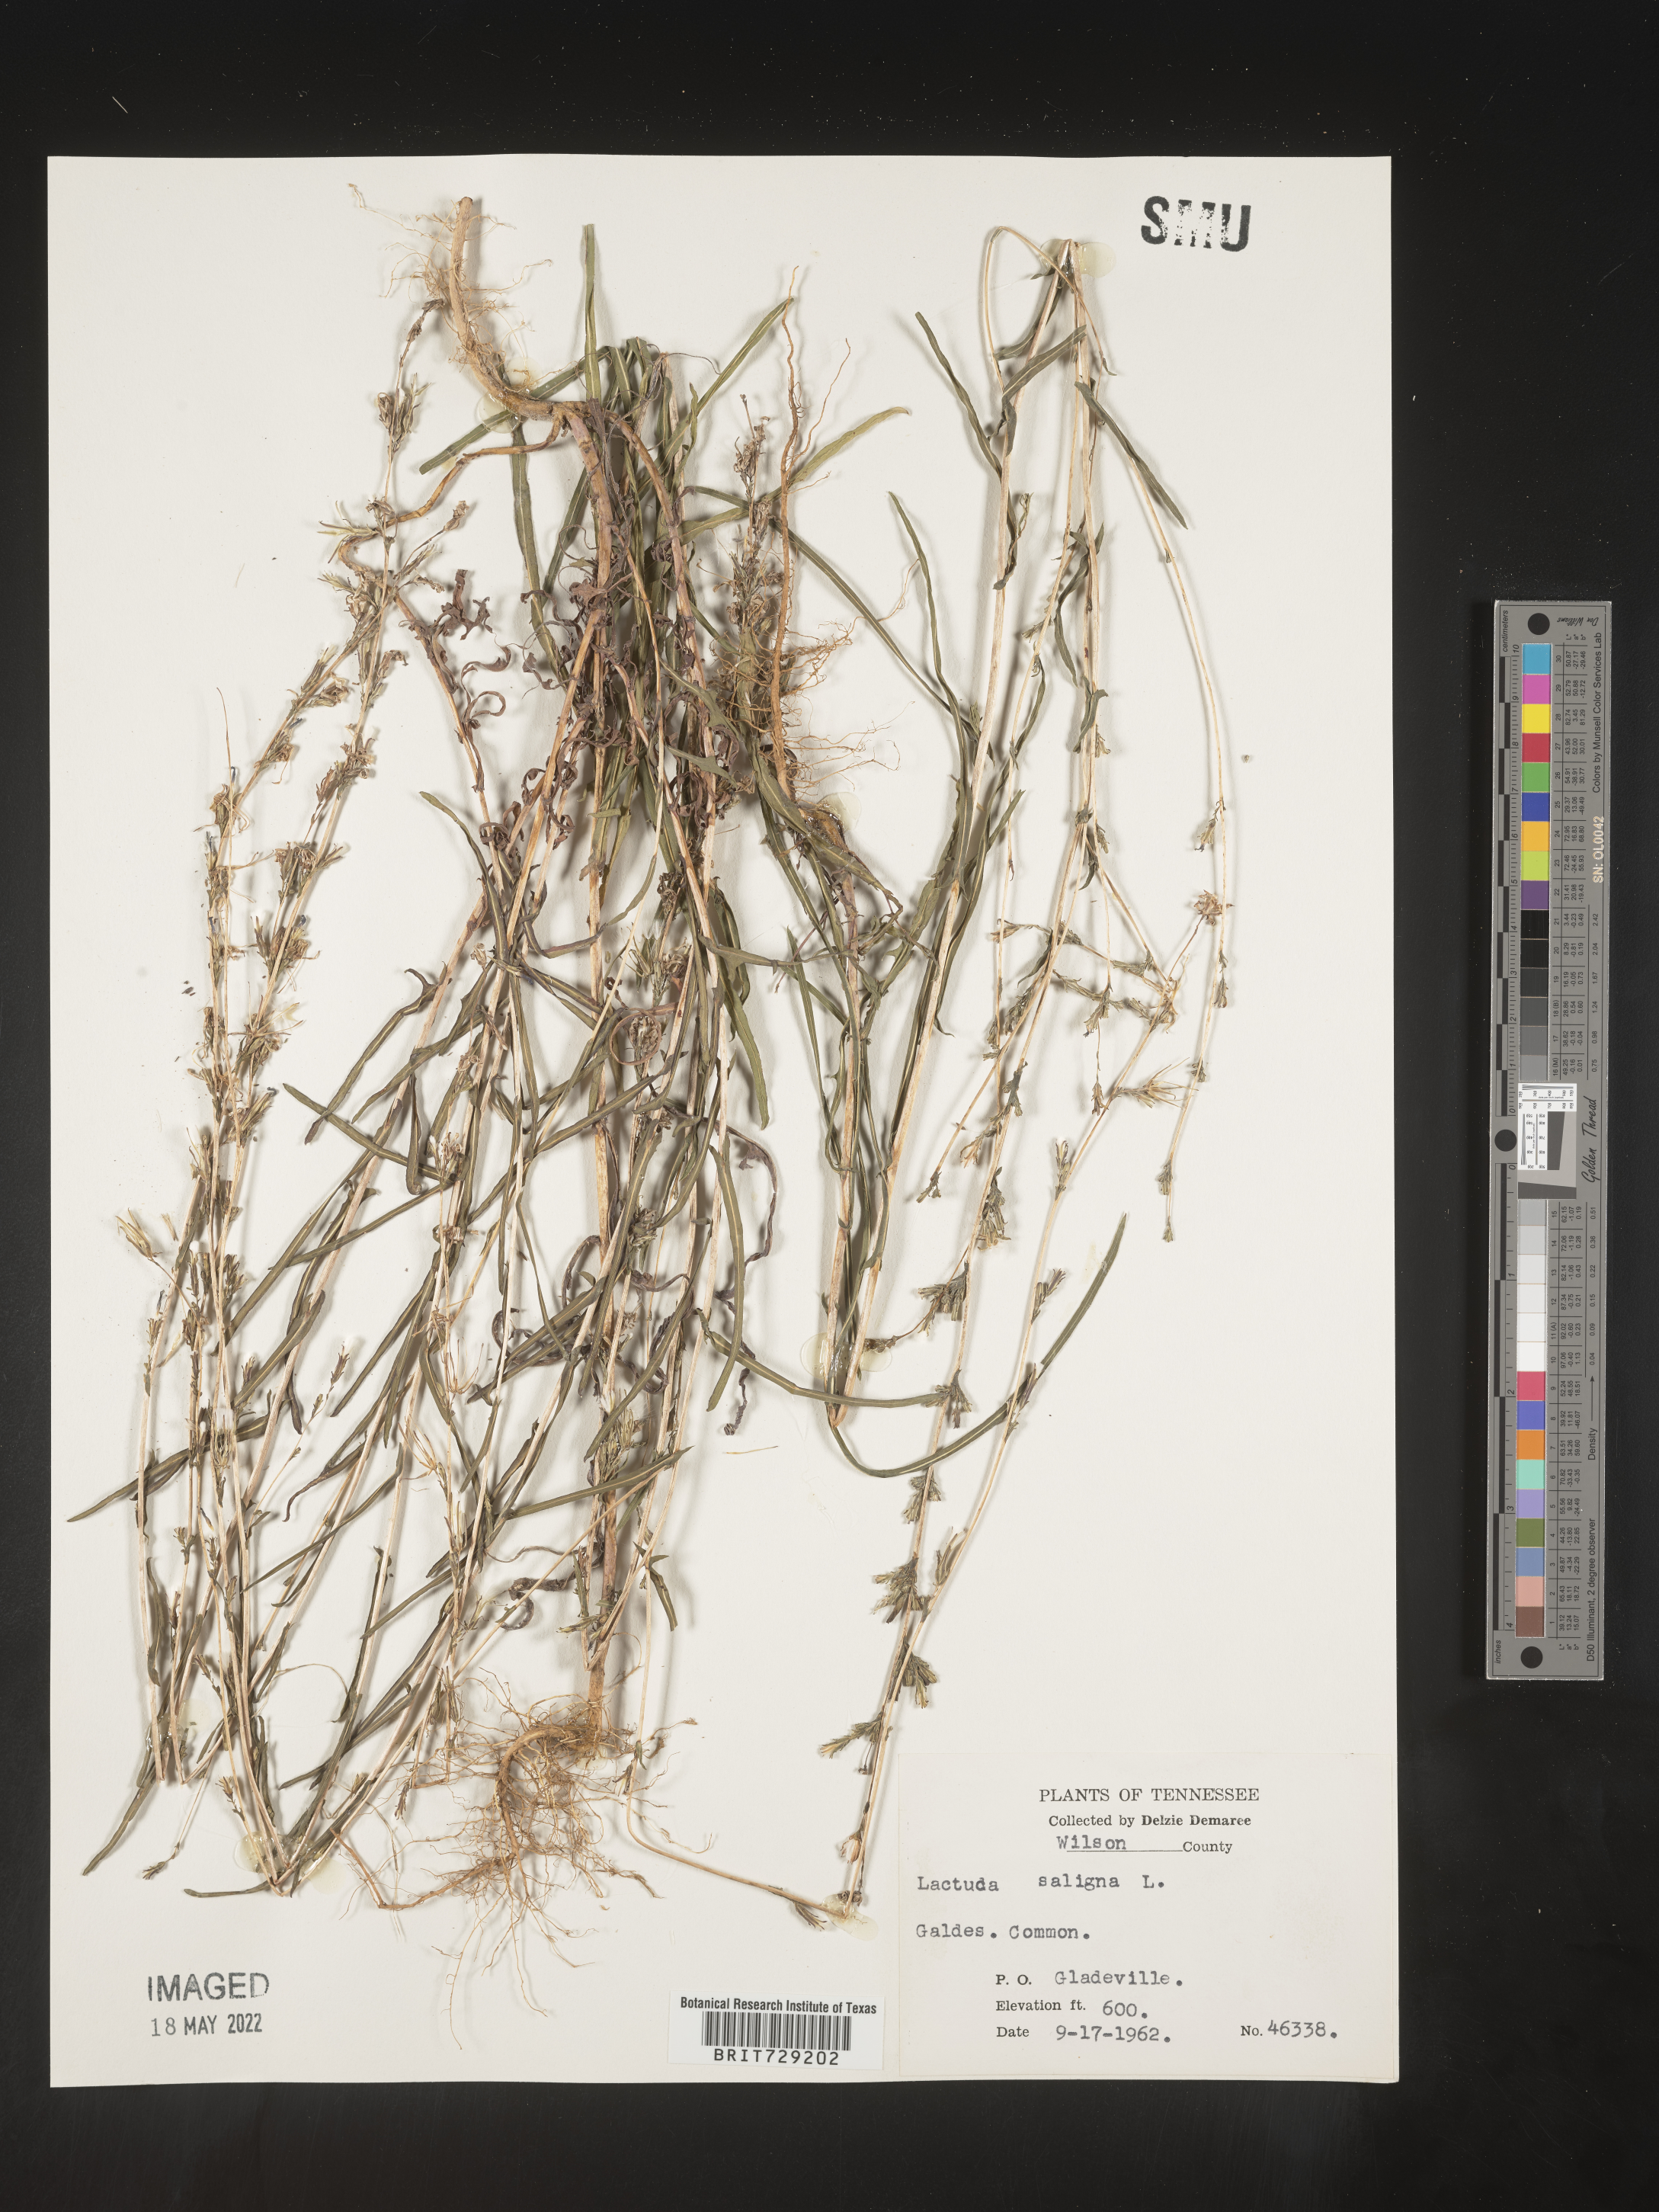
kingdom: Plantae
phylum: Tracheophyta
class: Magnoliopsida
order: Asterales
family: Asteraceae
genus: Lactuca
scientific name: Lactuca saligna
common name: Wild lettuce
